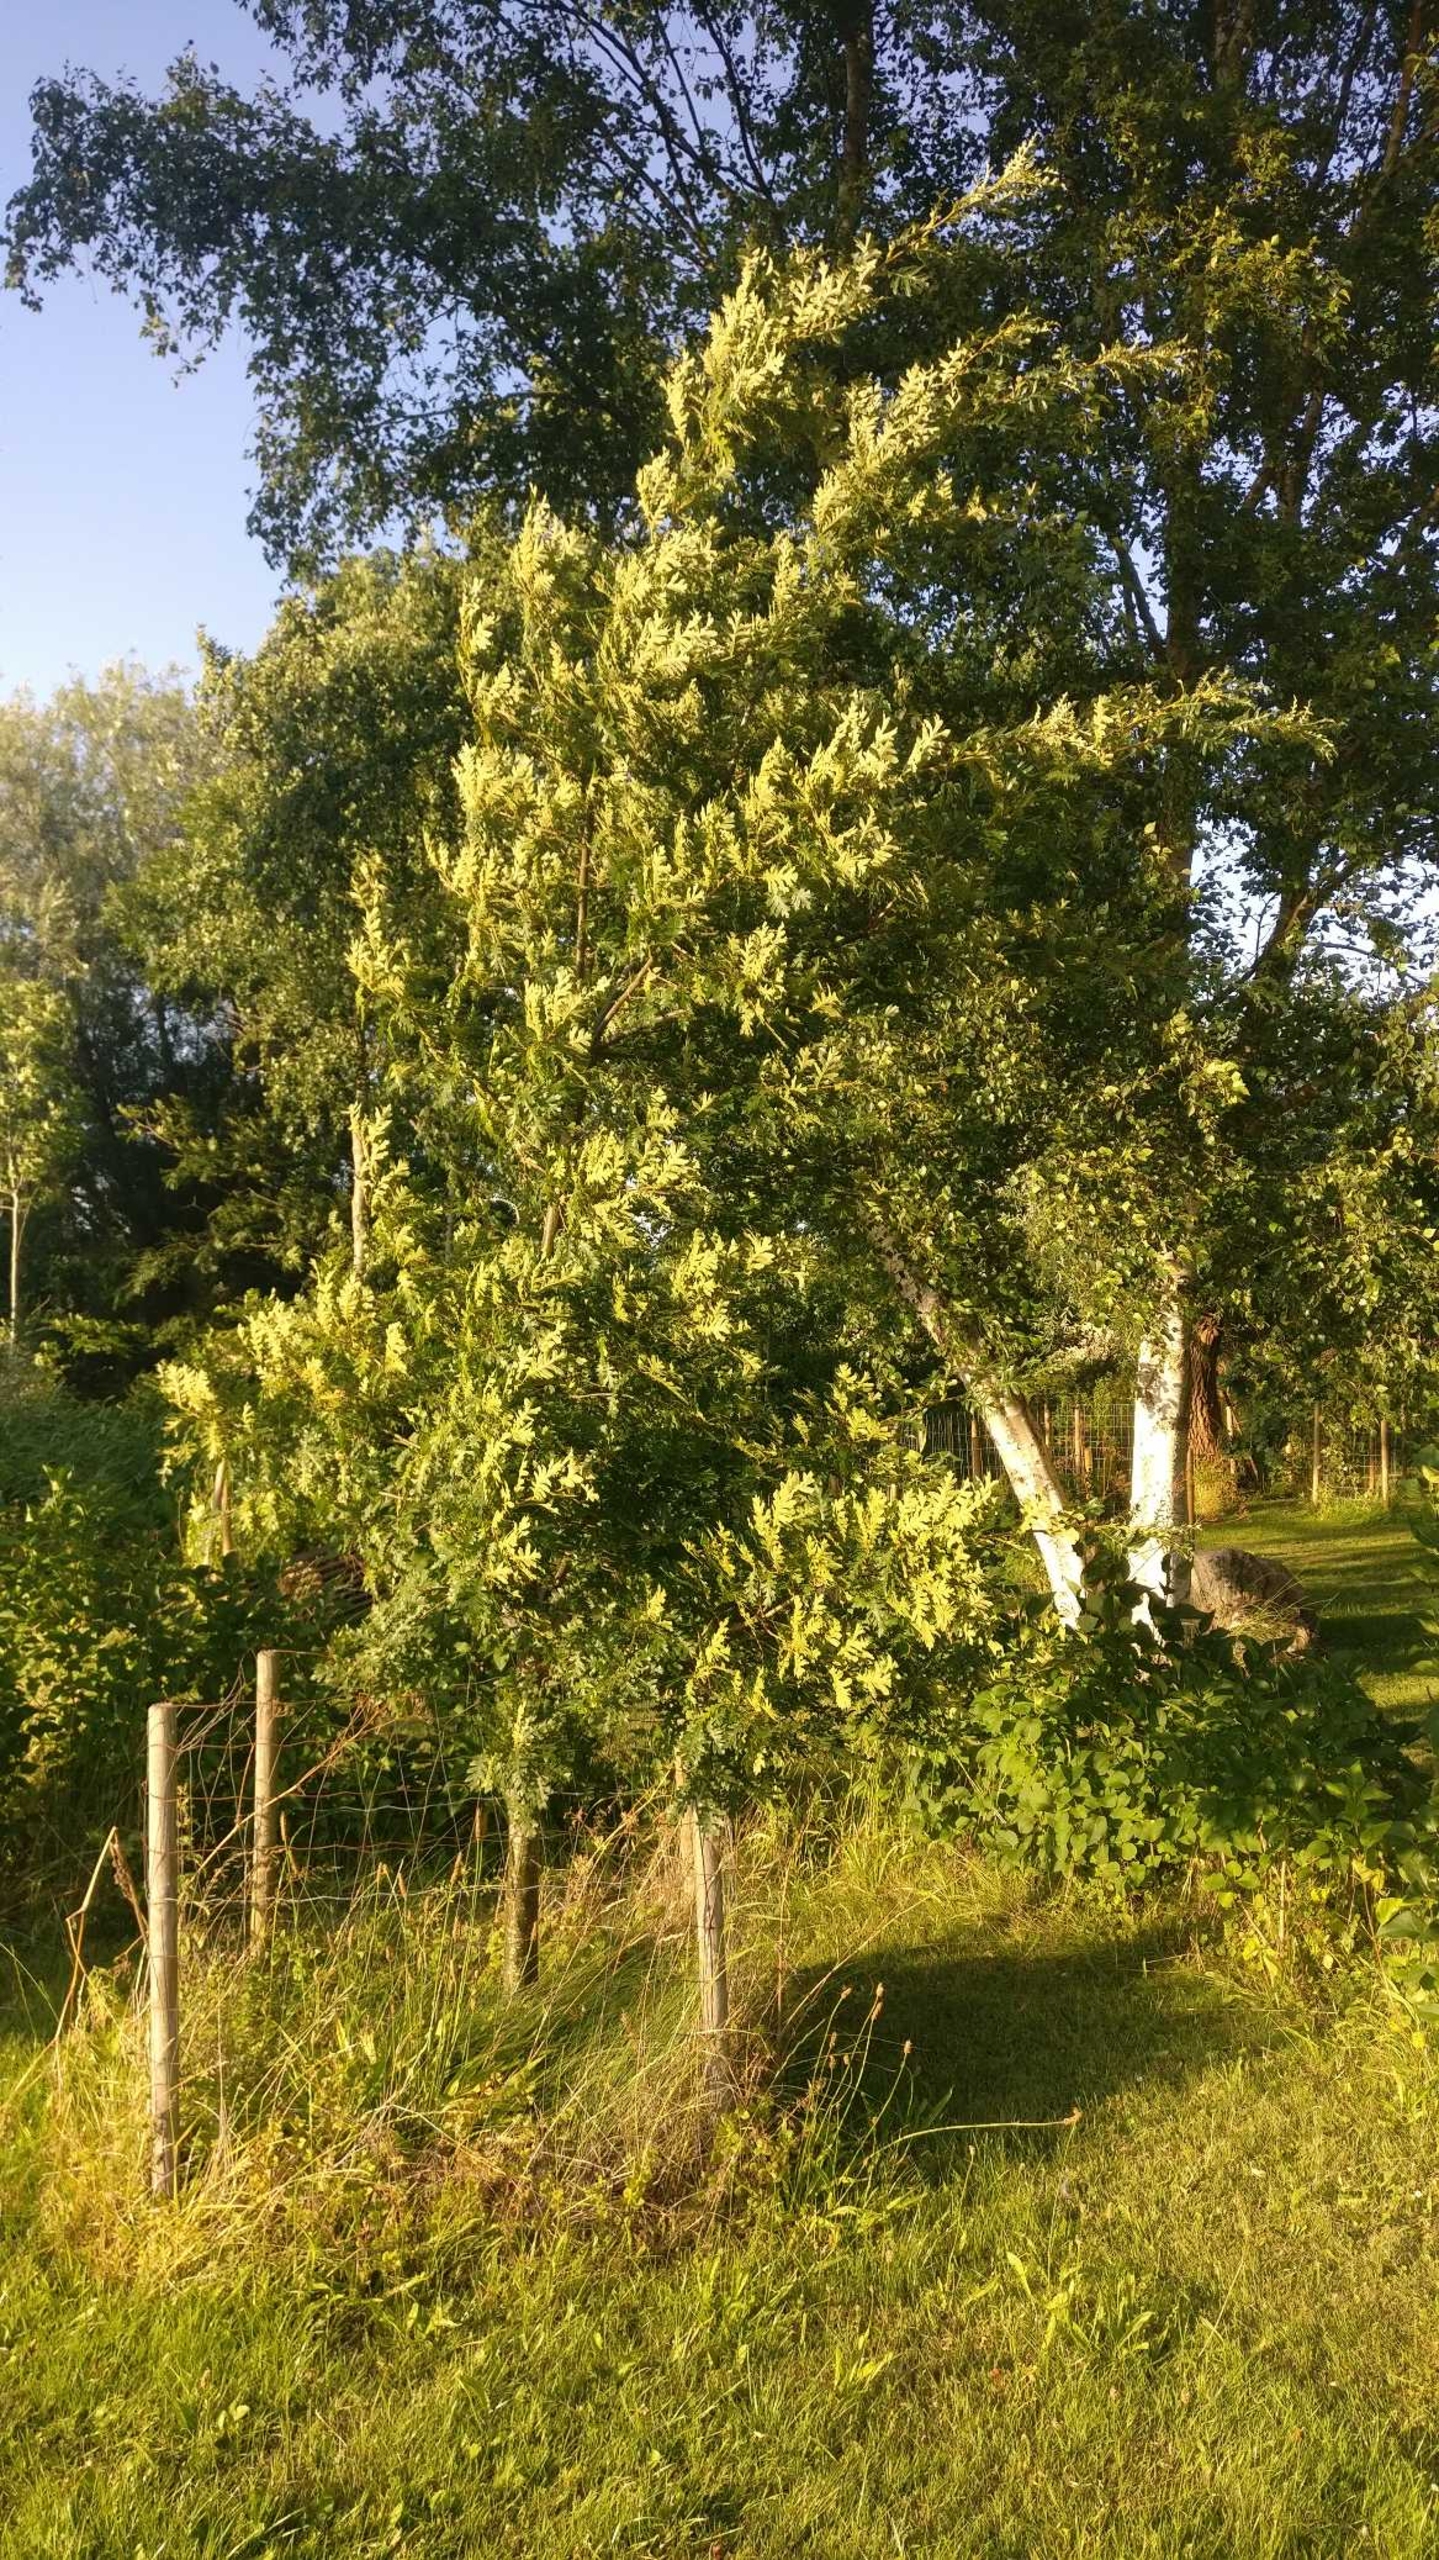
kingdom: Plantae
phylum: Tracheophyta
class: Magnoliopsida
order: Fagales
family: Fagaceae
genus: Quercus
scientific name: Quercus cerris
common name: Frynse-eg
